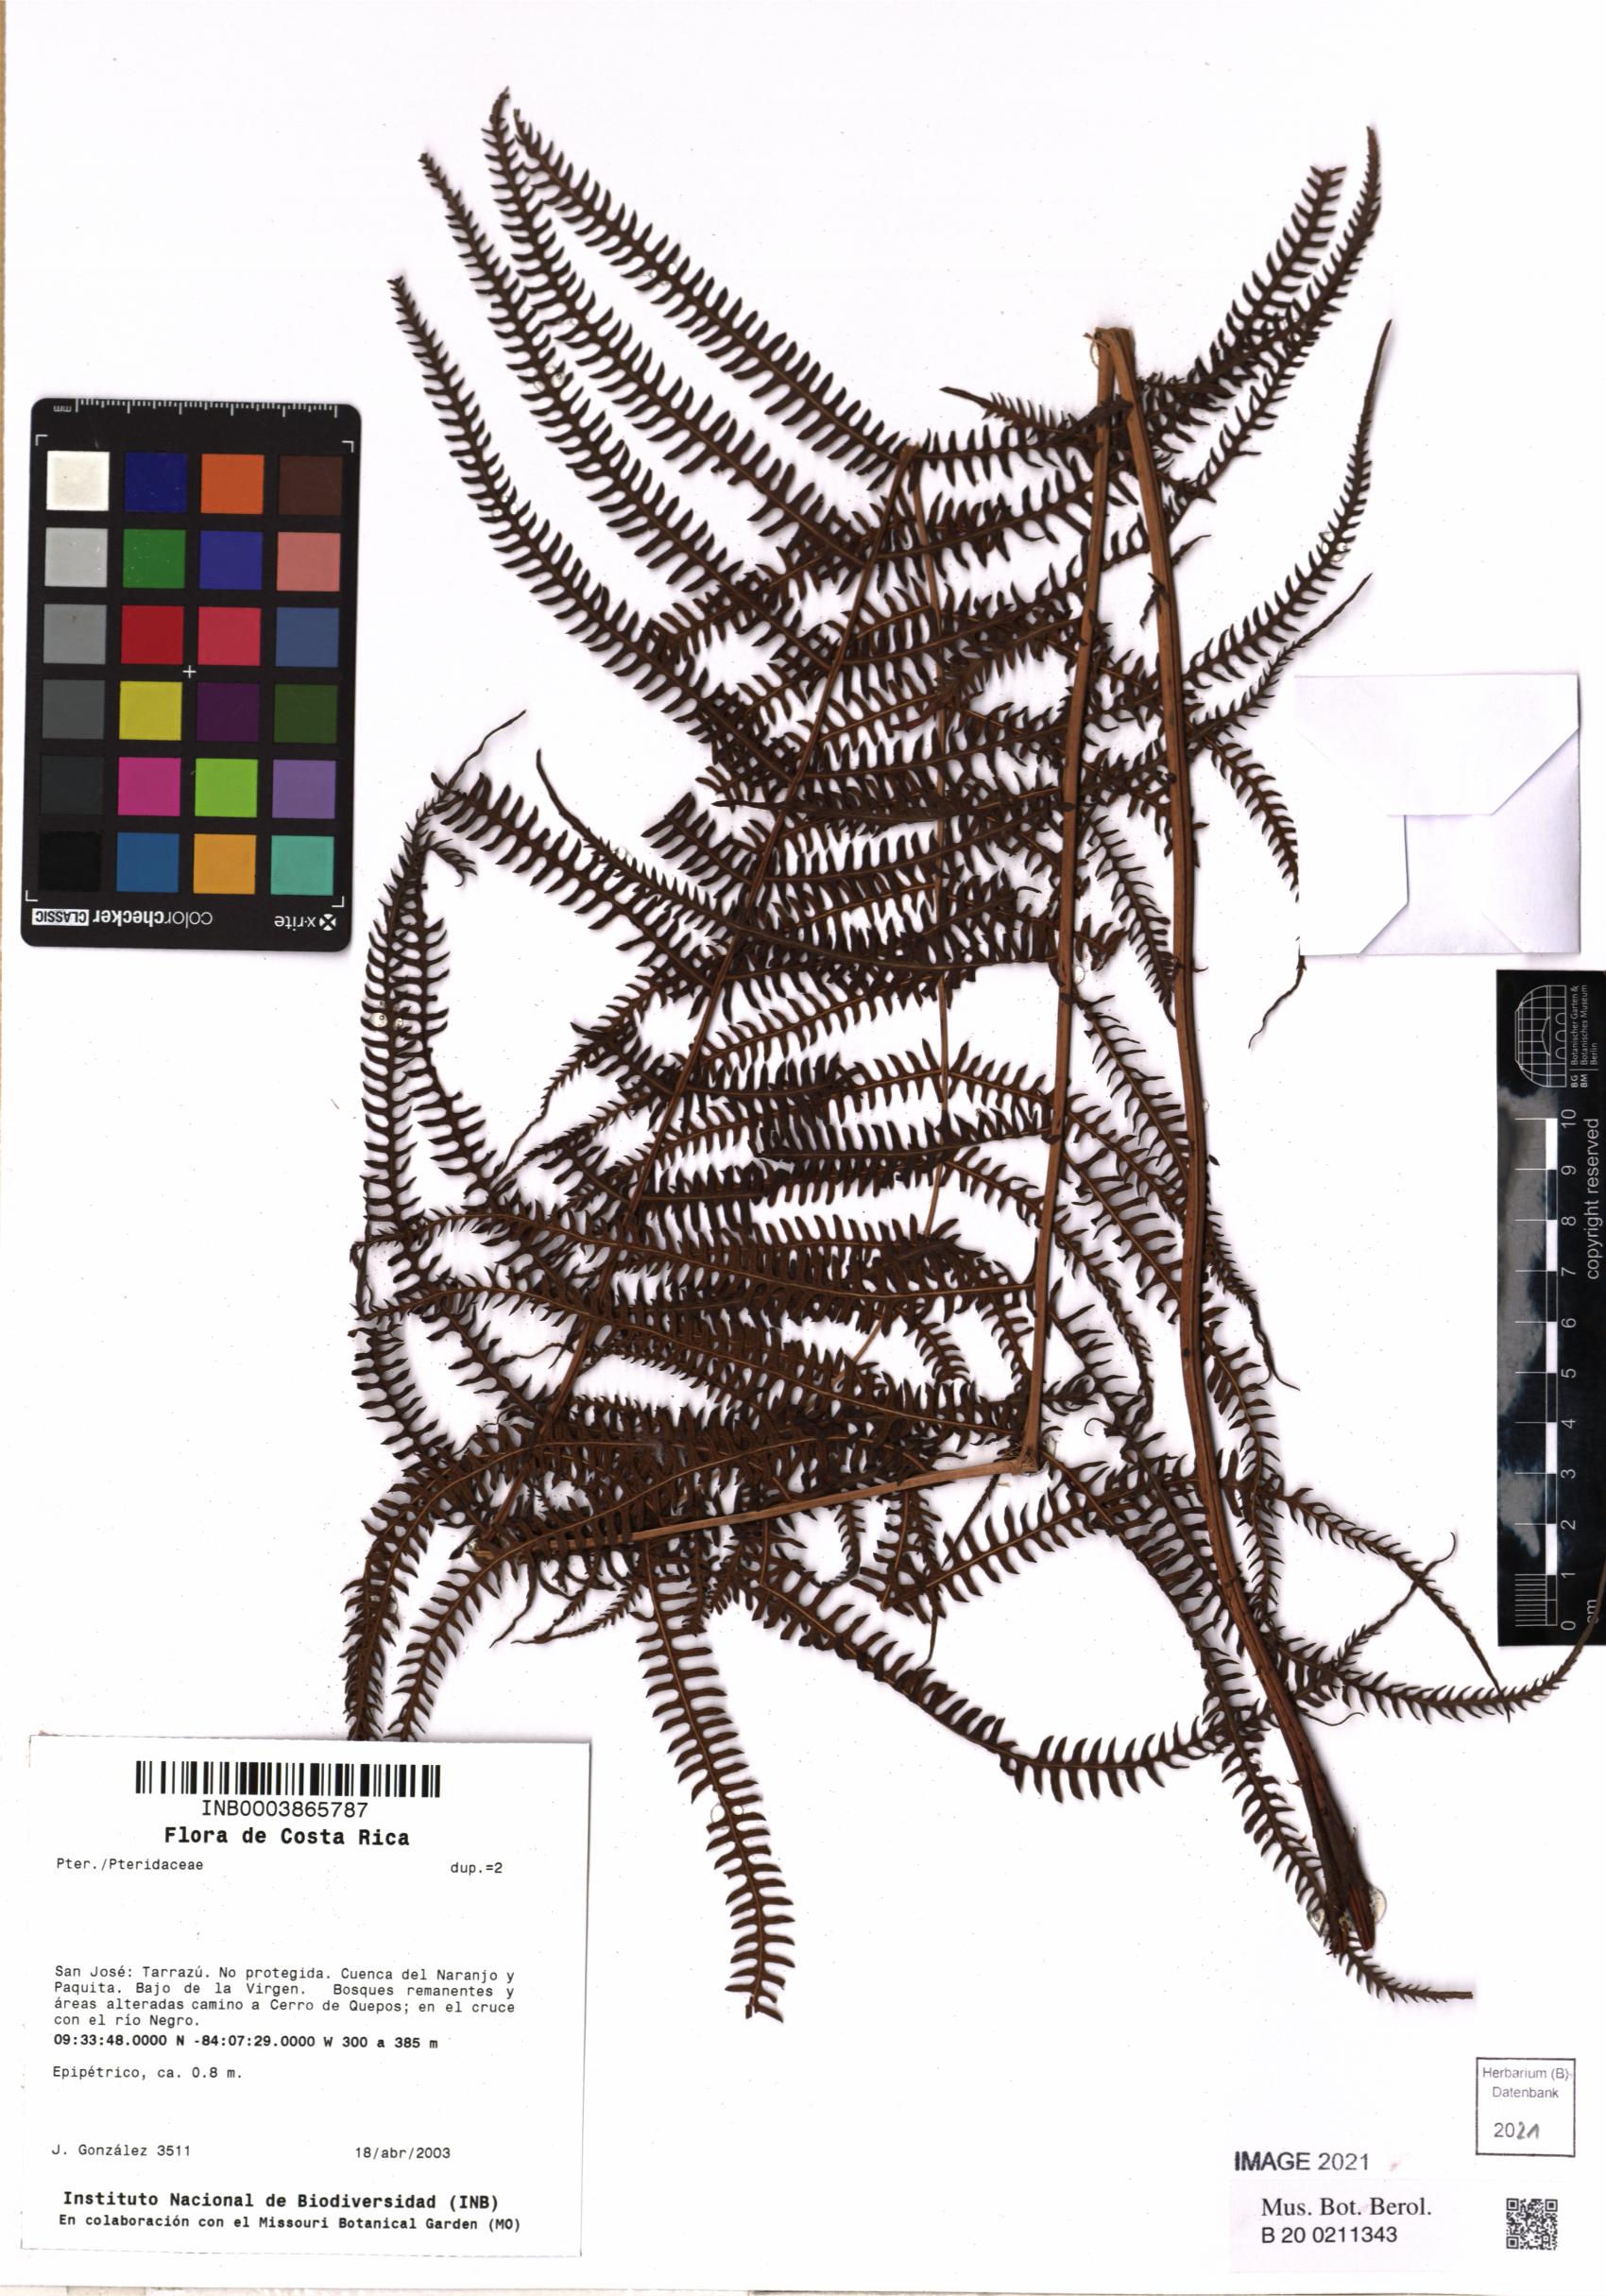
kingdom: Plantae
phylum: Tracheophyta
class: Polypodiopsida
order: Polypodiales
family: Pteridaceae
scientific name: Pteridaceae
